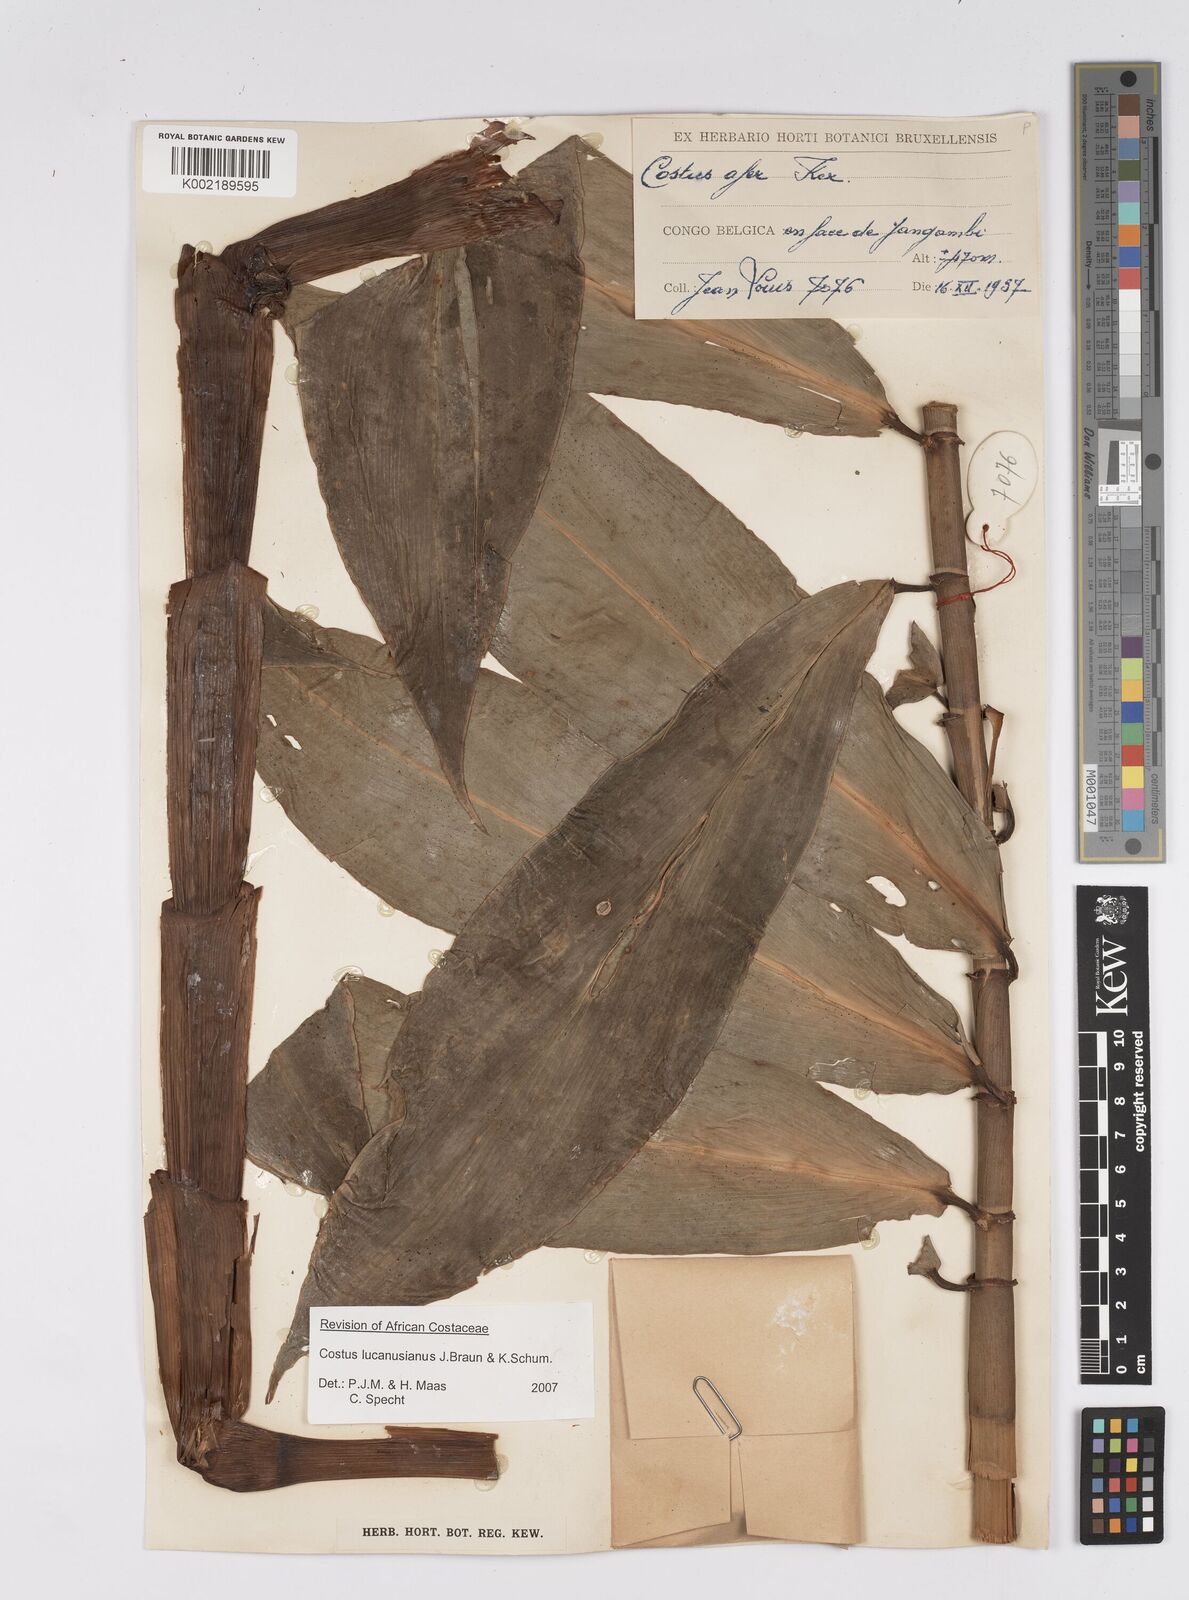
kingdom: Plantae
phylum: Tracheophyta
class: Liliopsida
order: Zingiberales
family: Costaceae
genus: Costus
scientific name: Costus lucanusianus
